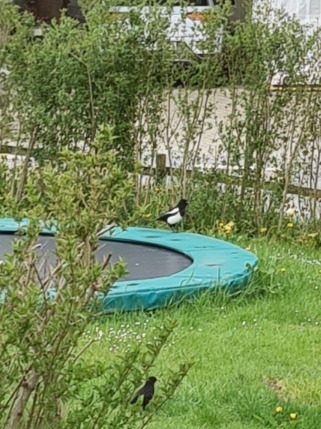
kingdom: Animalia
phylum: Chordata
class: Aves
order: Passeriformes
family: Corvidae
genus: Pica
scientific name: Pica pica
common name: Husskade
